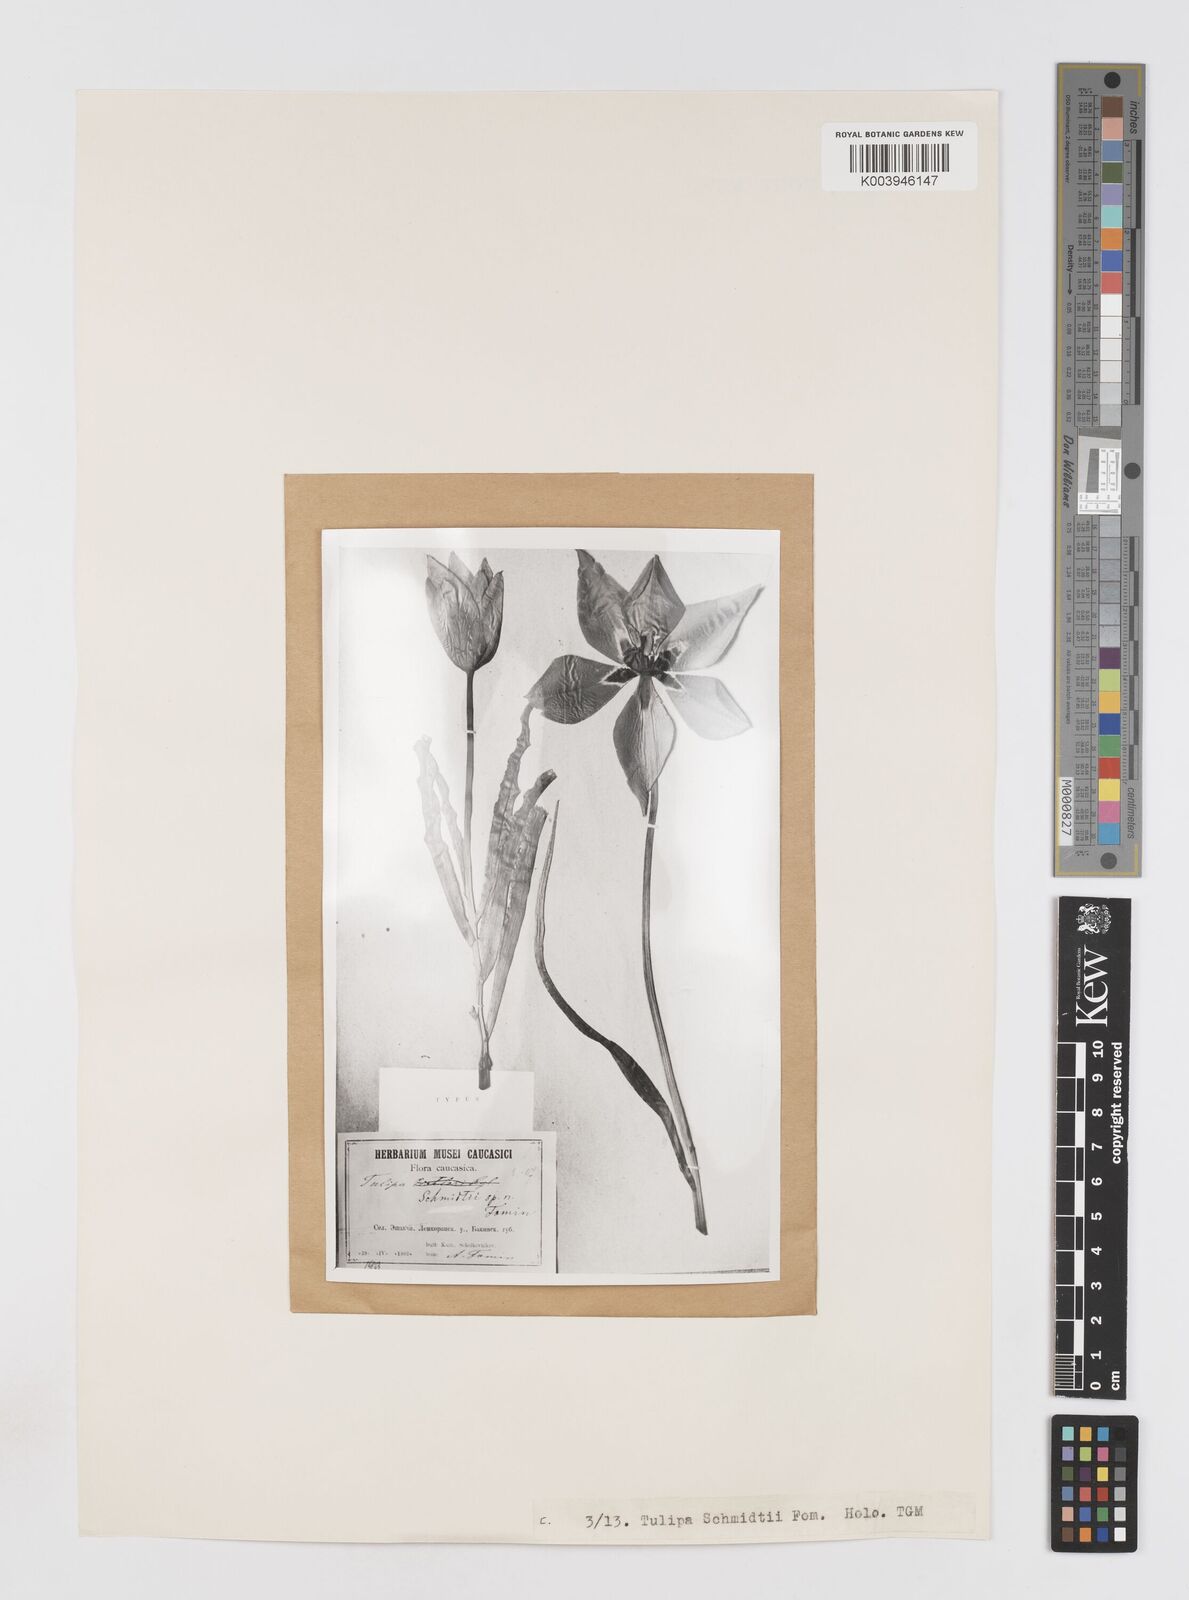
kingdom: Plantae
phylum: Tracheophyta
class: Liliopsida
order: Liliales
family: Liliaceae
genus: Tulipa
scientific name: Tulipa schmidtii
